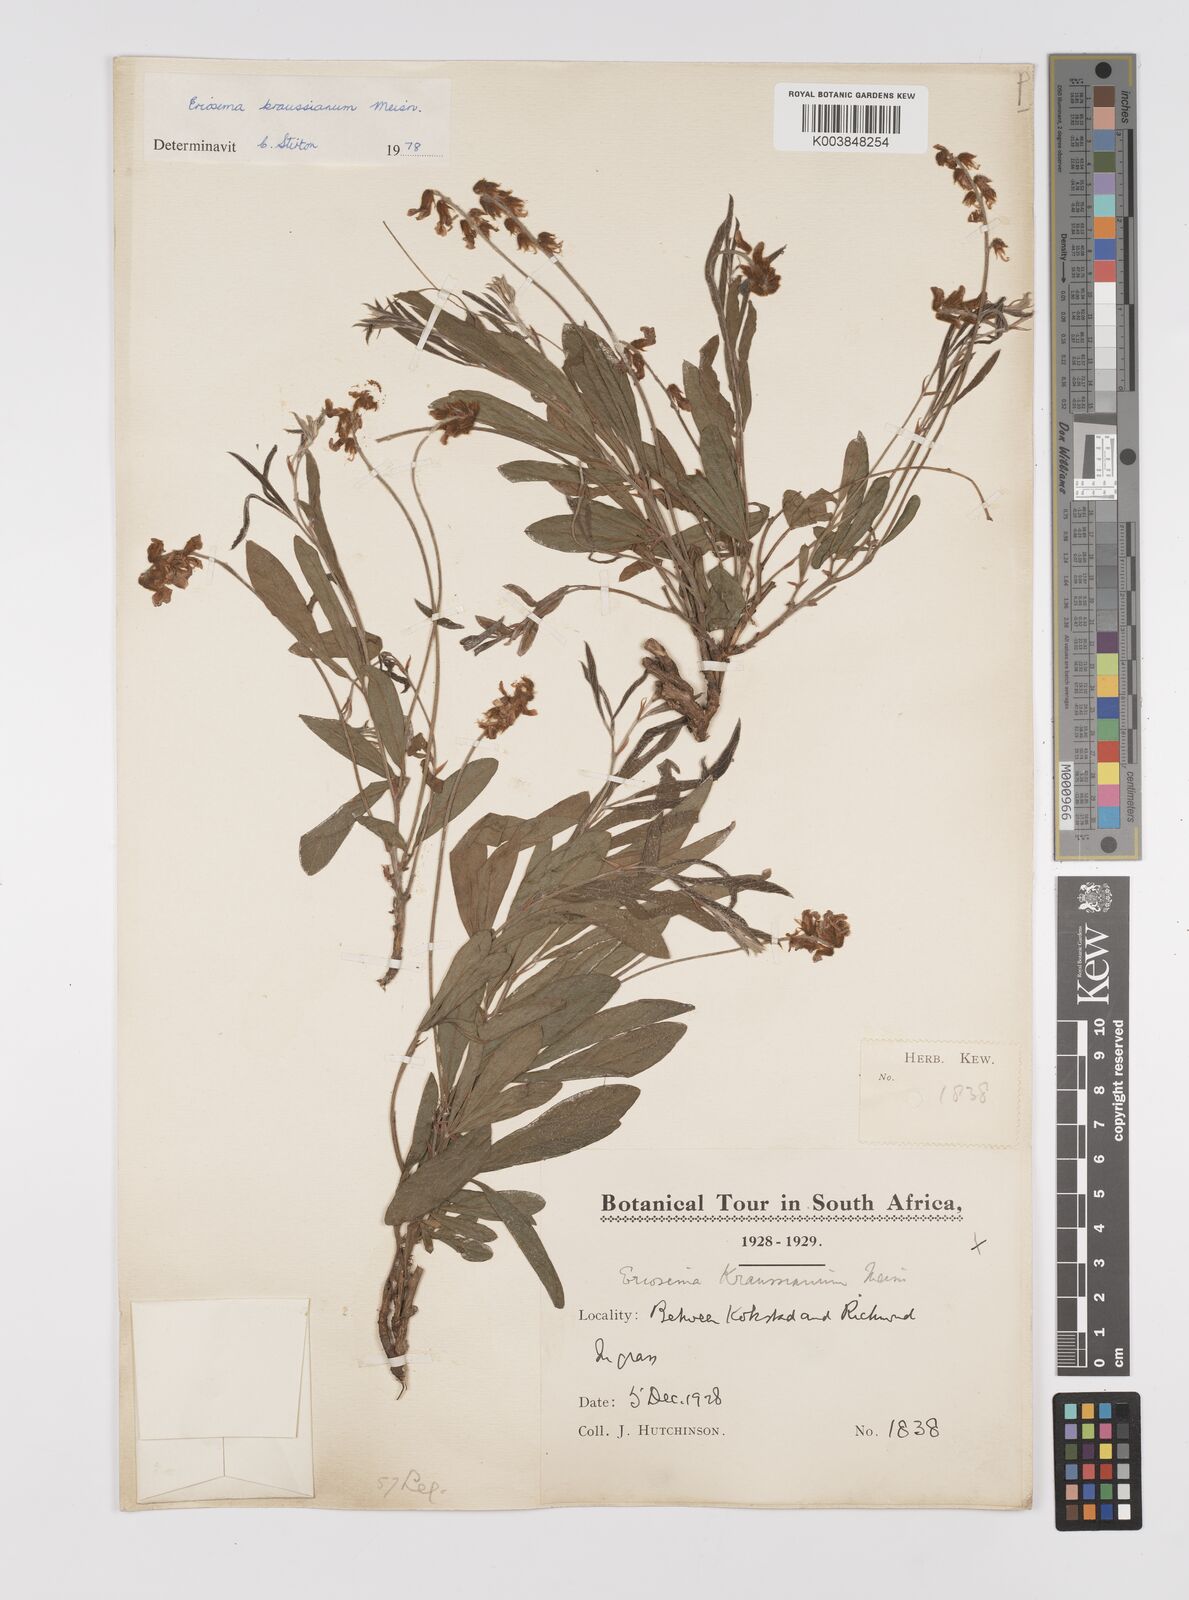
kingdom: Plantae
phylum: Tracheophyta
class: Magnoliopsida
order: Fabales
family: Fabaceae
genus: Eriosema
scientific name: Eriosema kraussianum
